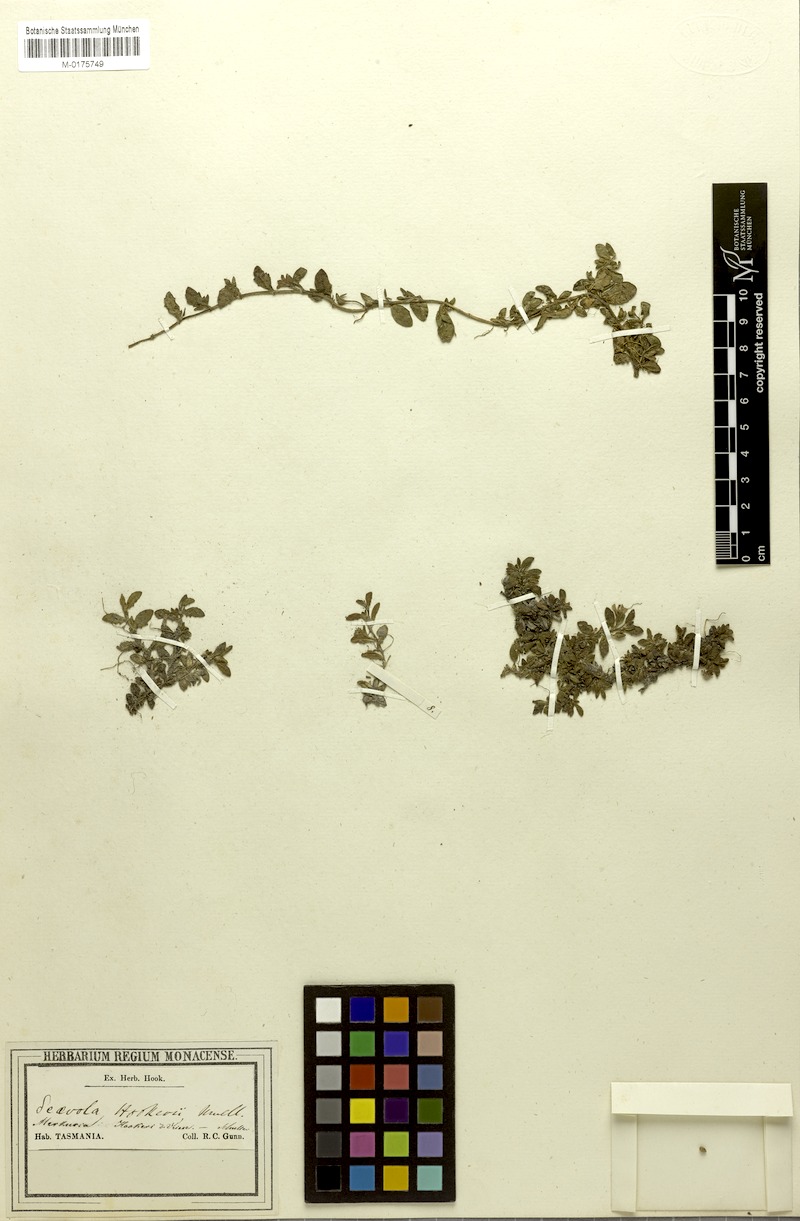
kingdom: Plantae
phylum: Tracheophyta
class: Magnoliopsida
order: Asterales
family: Goodeniaceae
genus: Scaevola
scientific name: Scaevola hookeri
